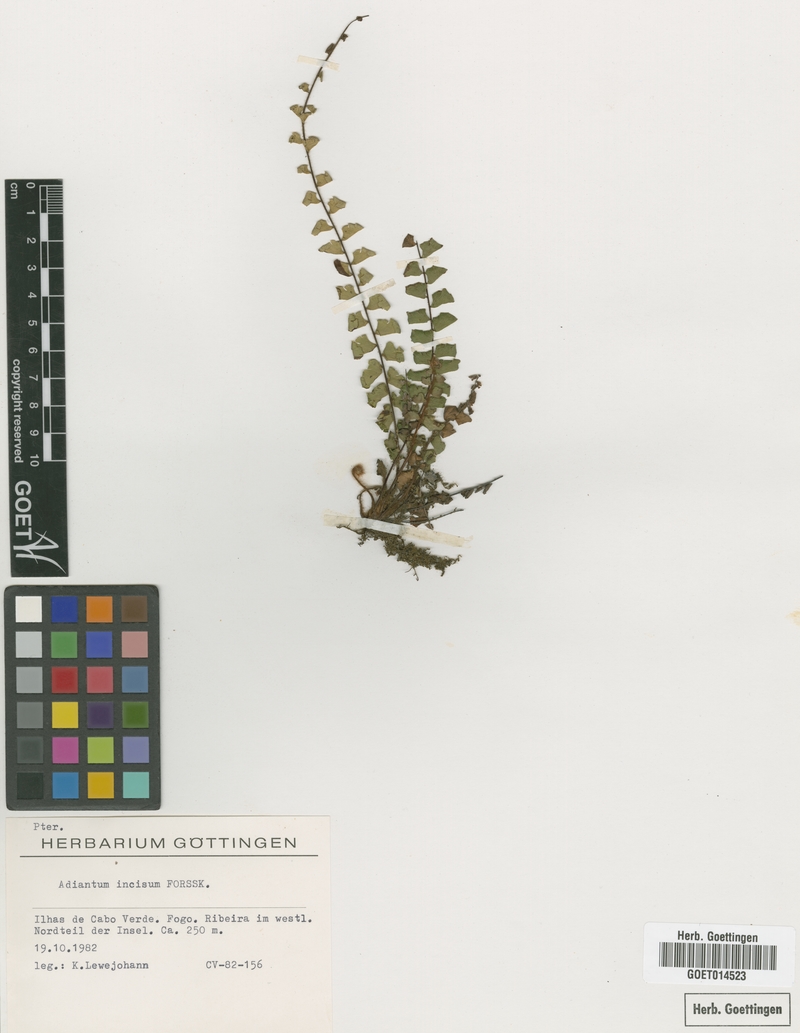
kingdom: Plantae
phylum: Tracheophyta
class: Polypodiopsida
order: Polypodiales
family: Pteridaceae
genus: Adiantum
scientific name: Adiantum incisum
